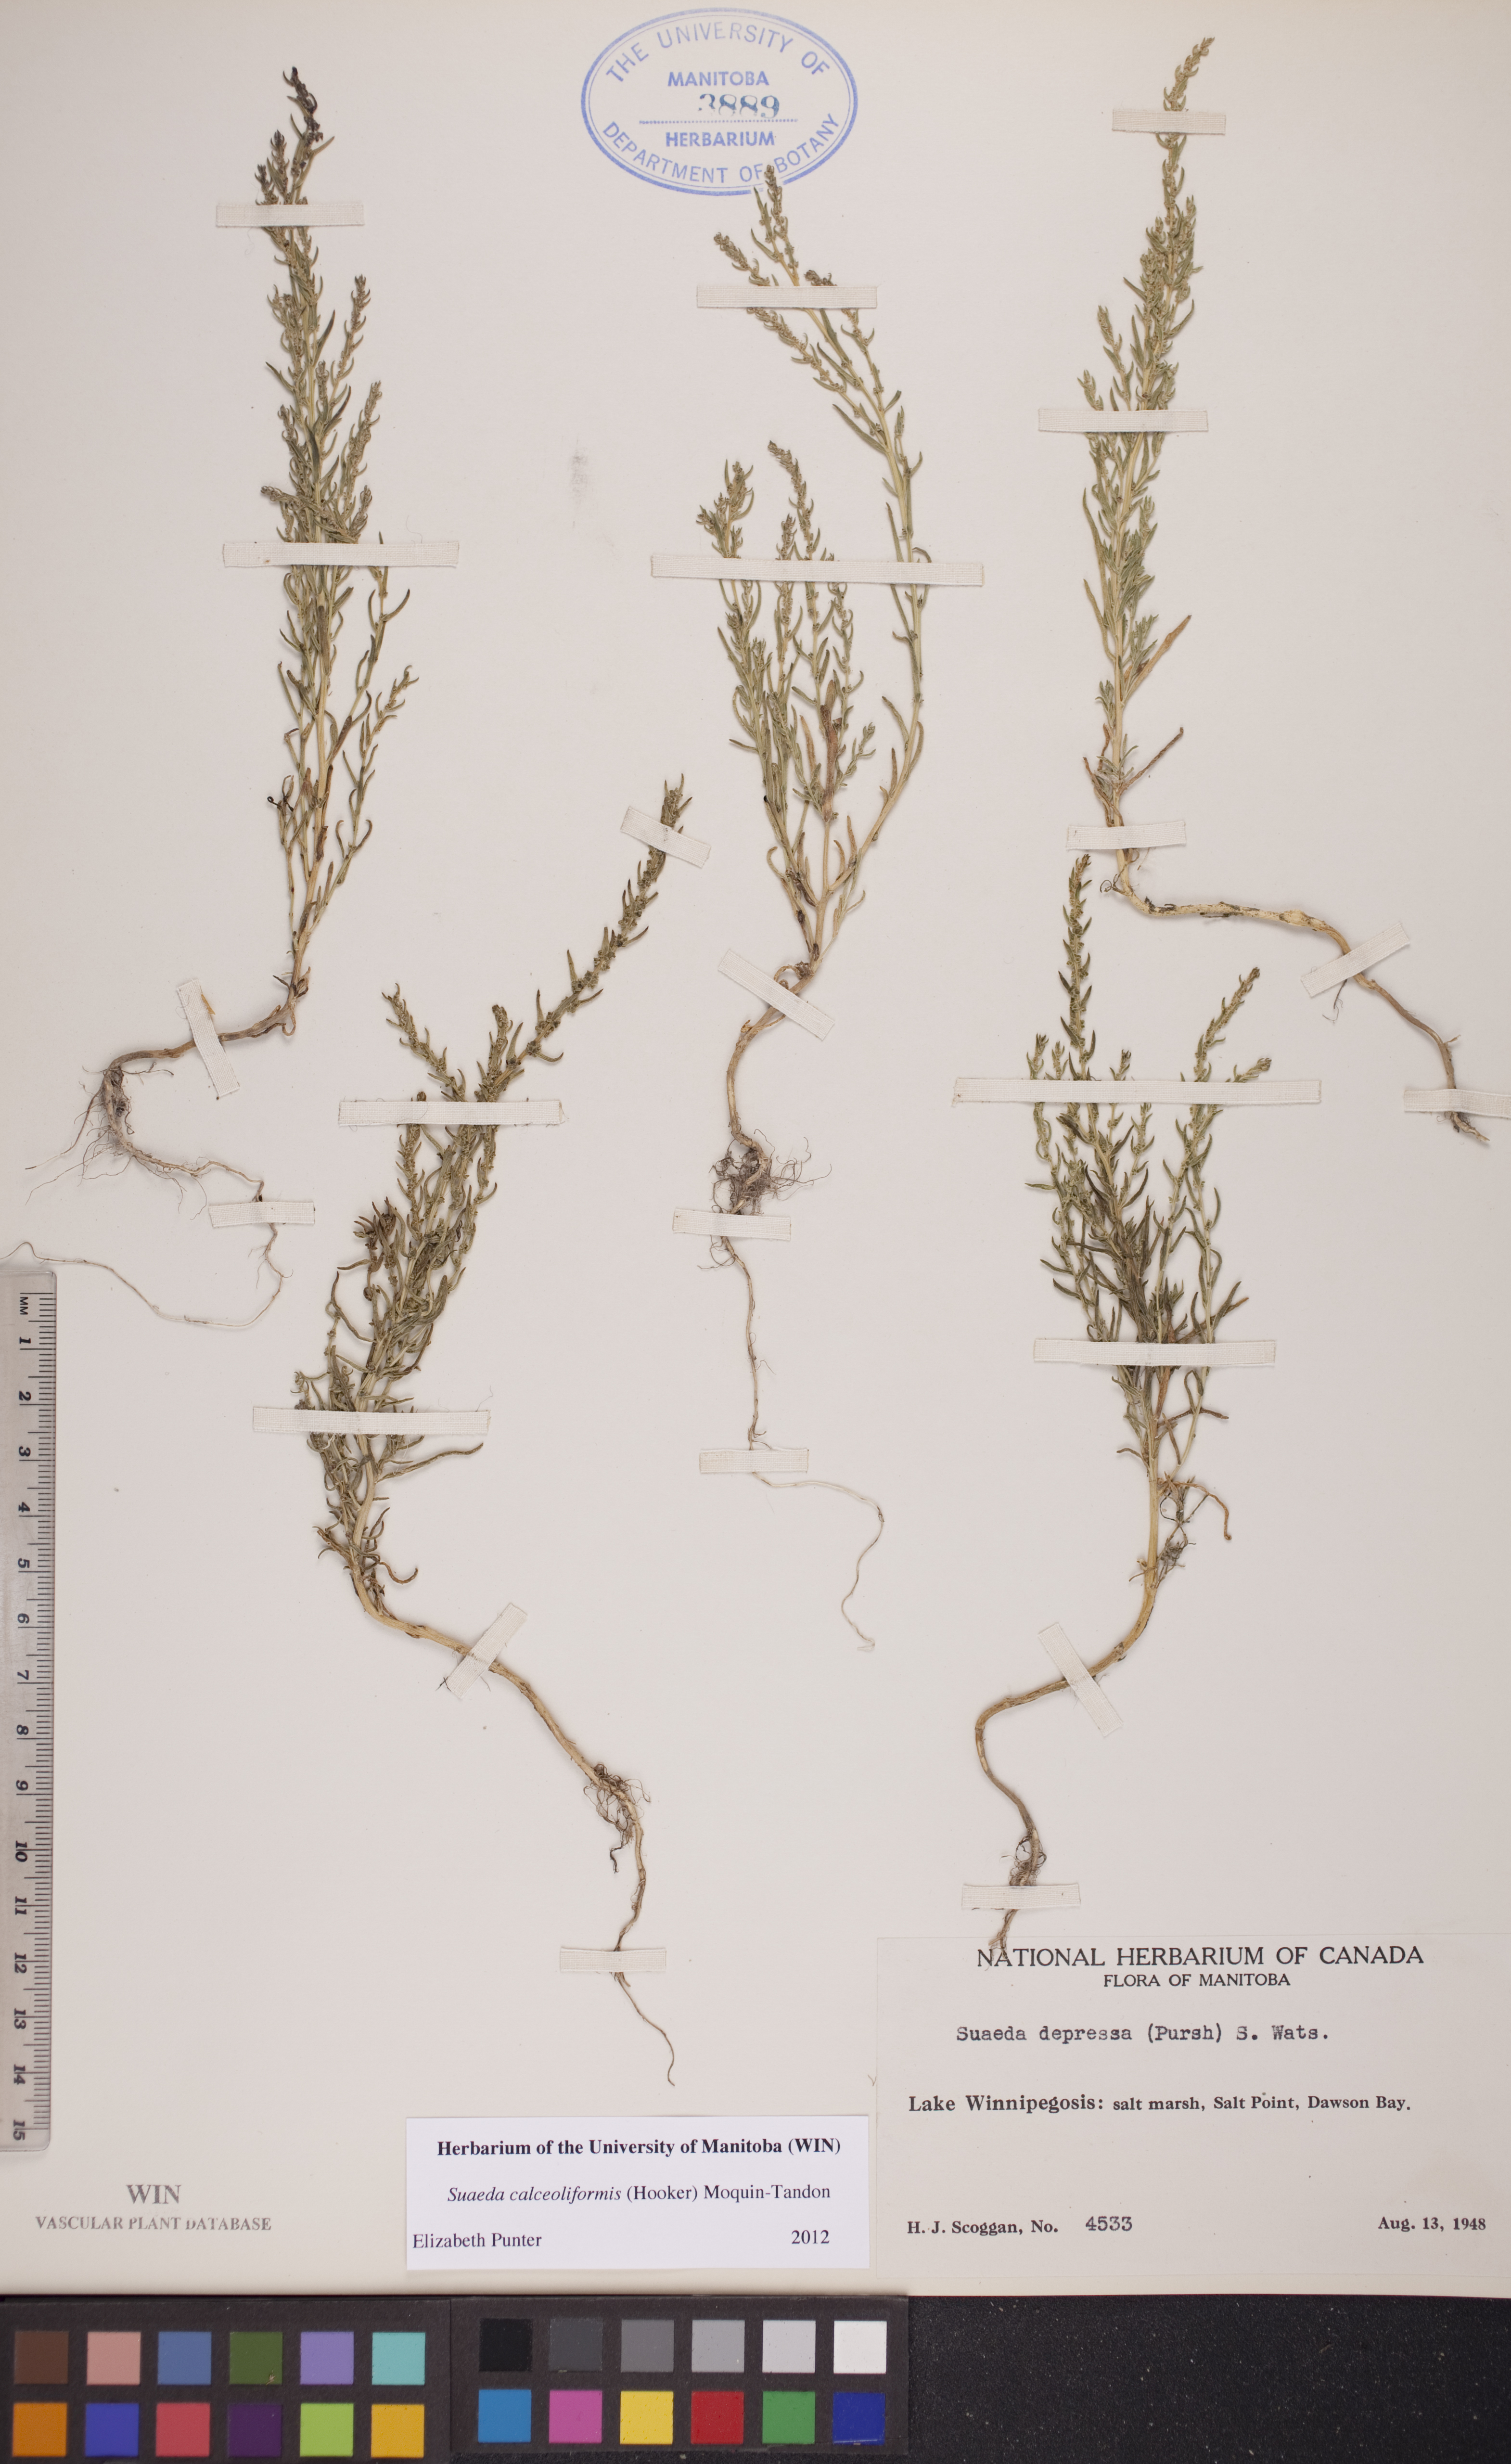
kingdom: Plantae
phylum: Tracheophyta
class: Magnoliopsida
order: Caryophyllales
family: Amaranthaceae
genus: Suaeda
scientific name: Suaeda calceoliformis
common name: Pursh's seepweed
